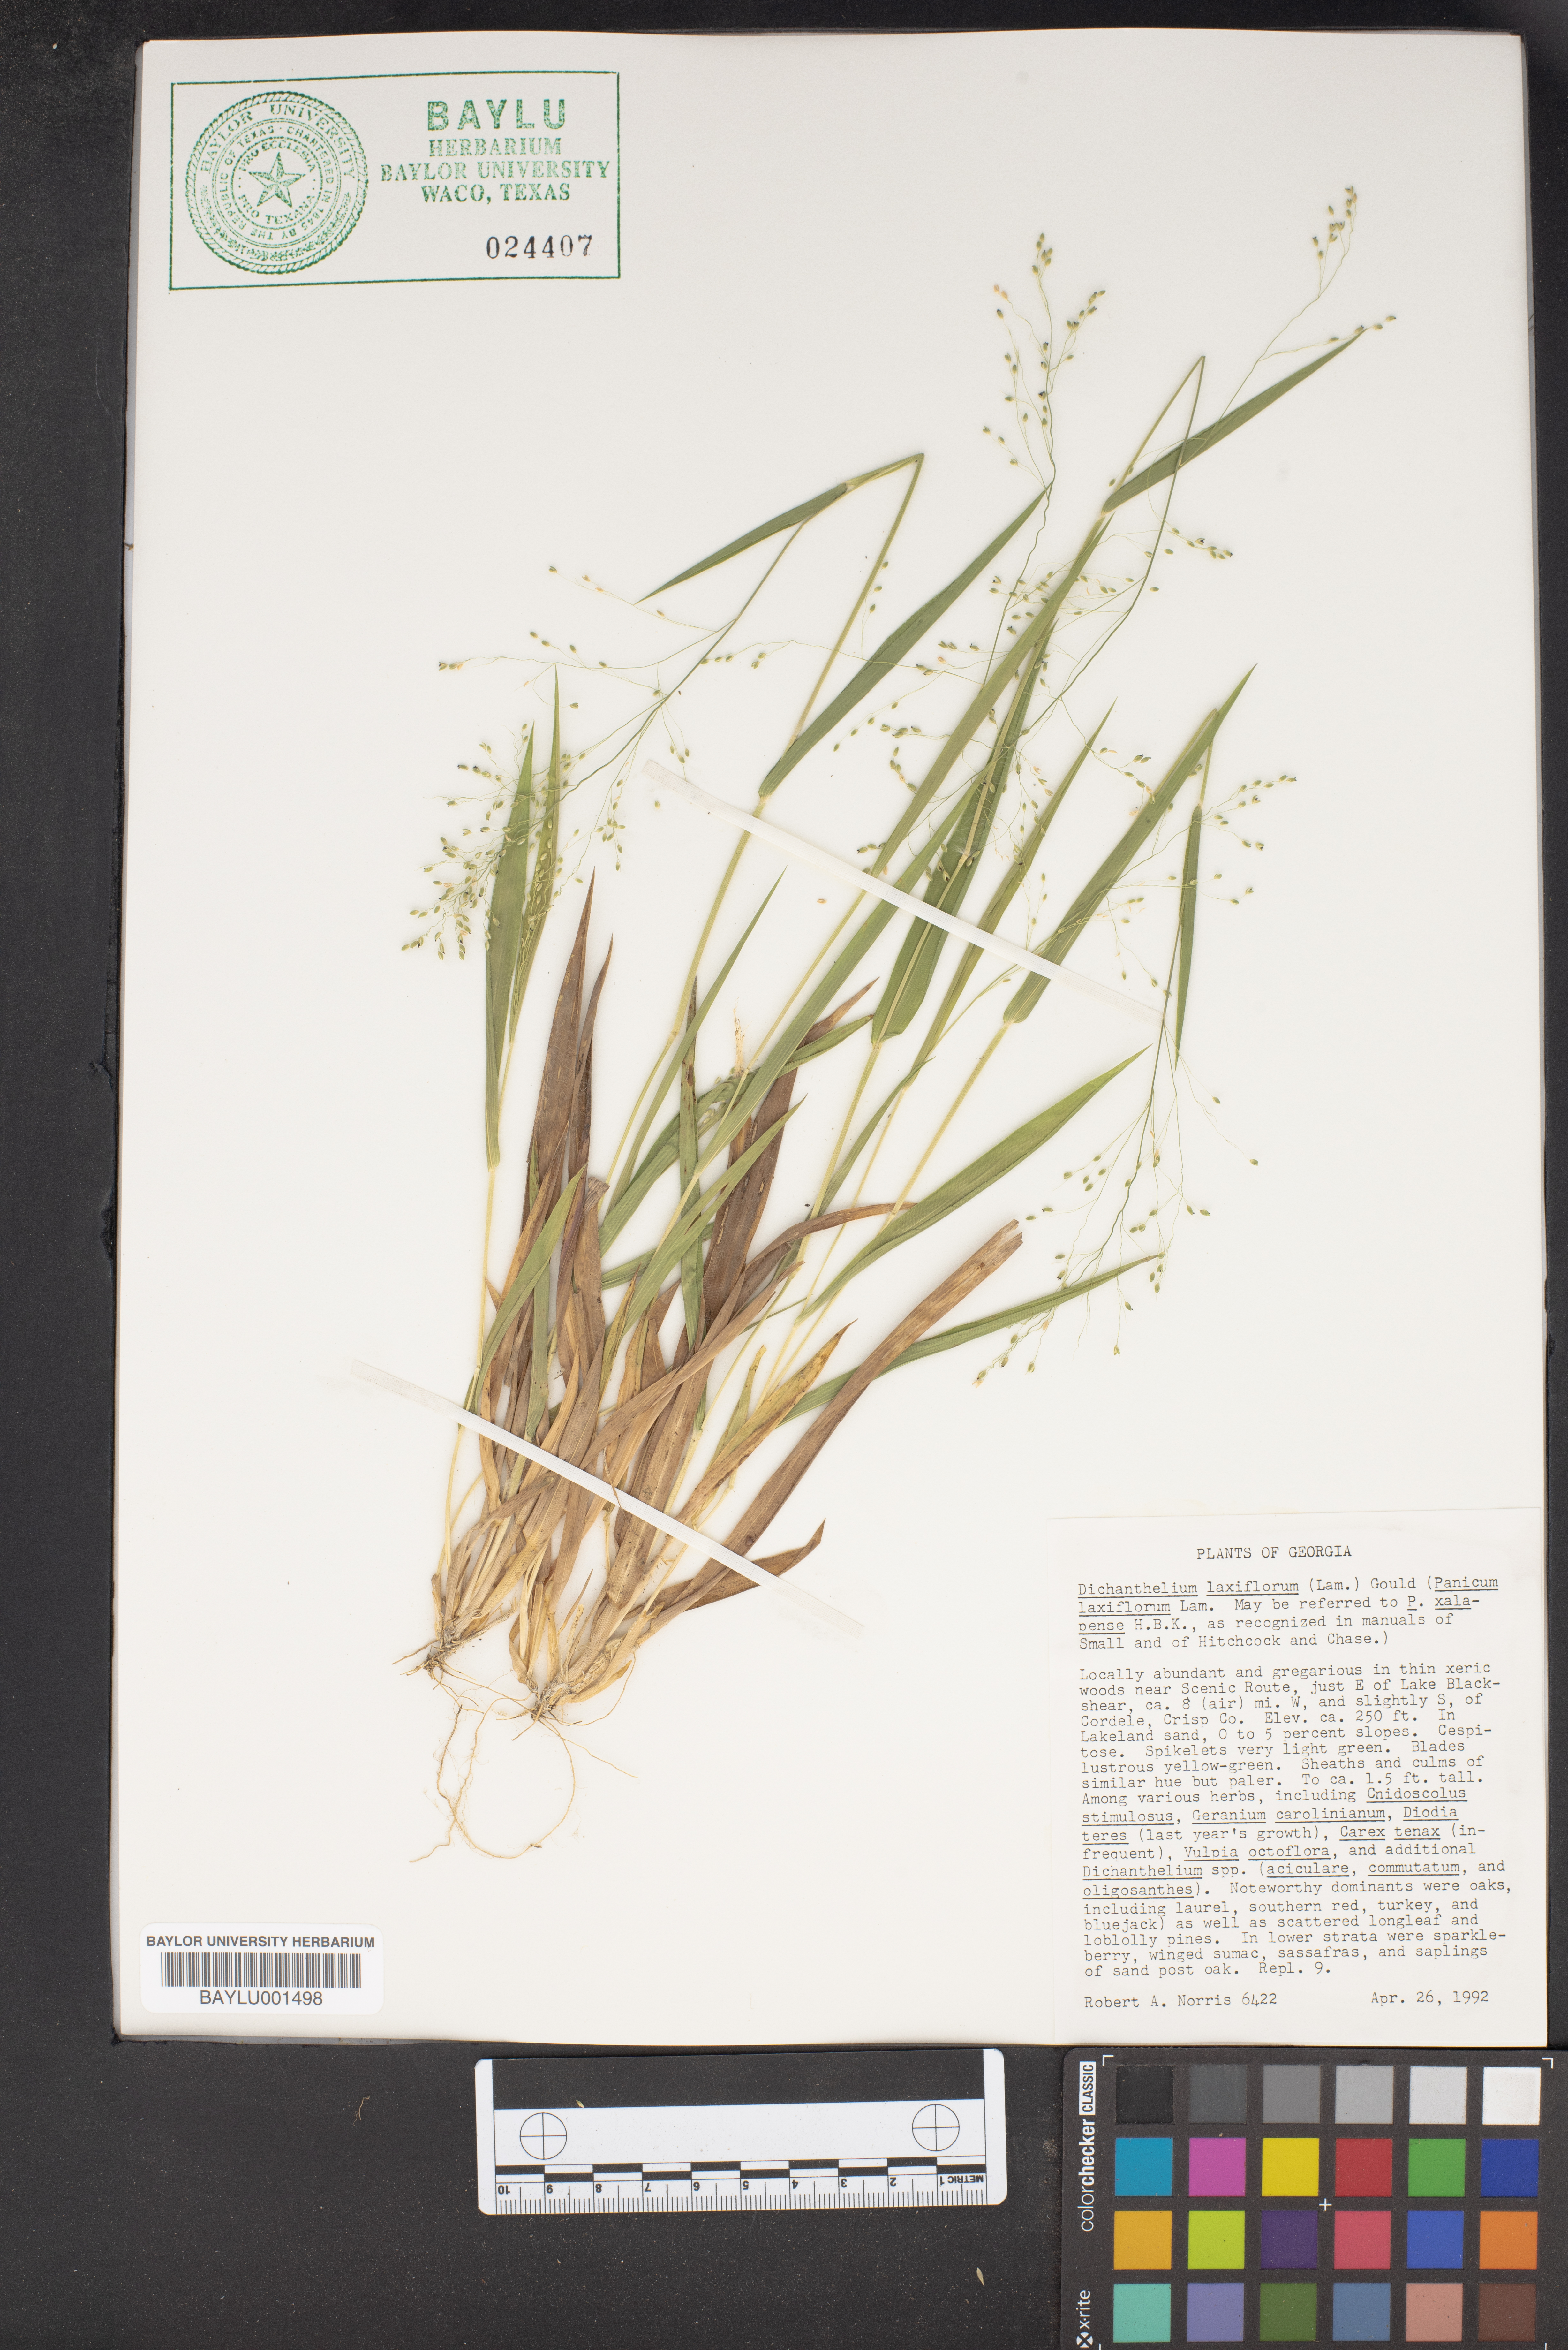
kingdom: Plantae
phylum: Tracheophyta
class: Liliopsida
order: Poales
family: Poaceae
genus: Dichanthelium
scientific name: Dichanthelium laxiflorum
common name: Soft-tuft panic grass
